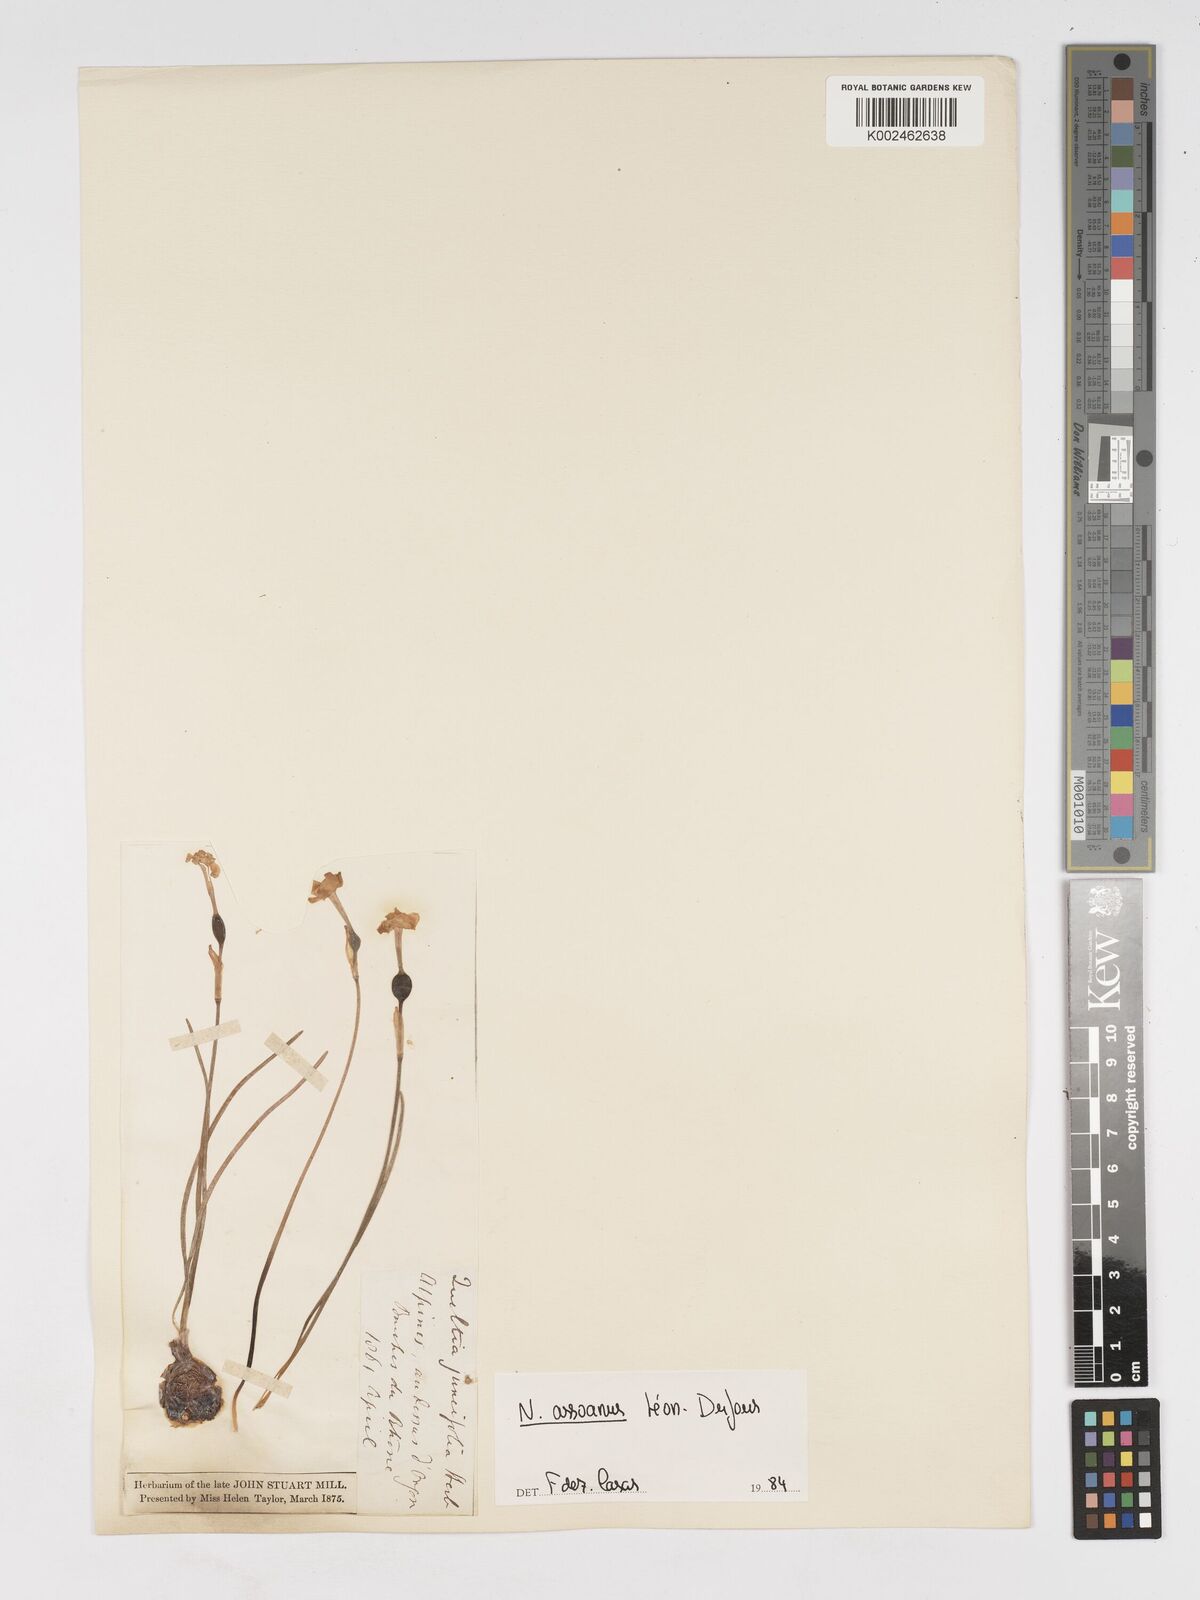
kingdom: Plantae
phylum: Tracheophyta
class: Liliopsida
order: Asparagales
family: Amaryllidaceae
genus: Narcissus
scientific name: Narcissus assoanus
